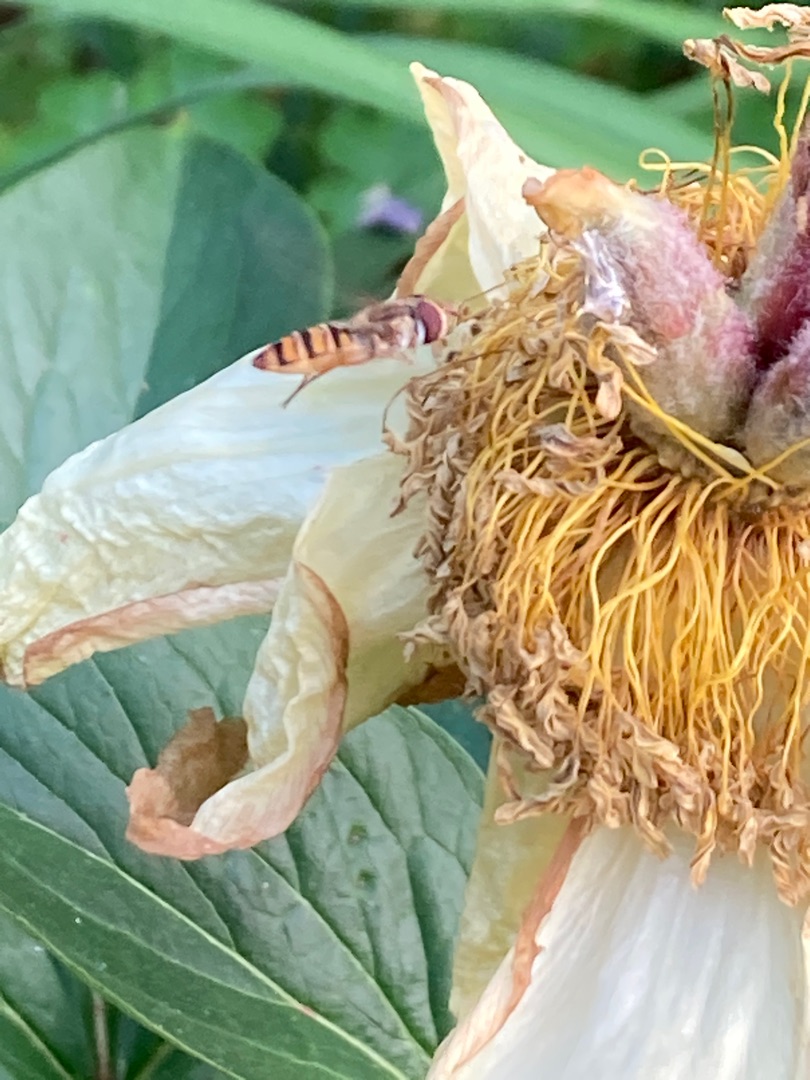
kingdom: Animalia
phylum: Arthropoda
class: Insecta
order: Diptera
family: Syrphidae
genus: Episyrphus
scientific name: Episyrphus balteatus
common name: Dobbeltbåndet svirreflue
